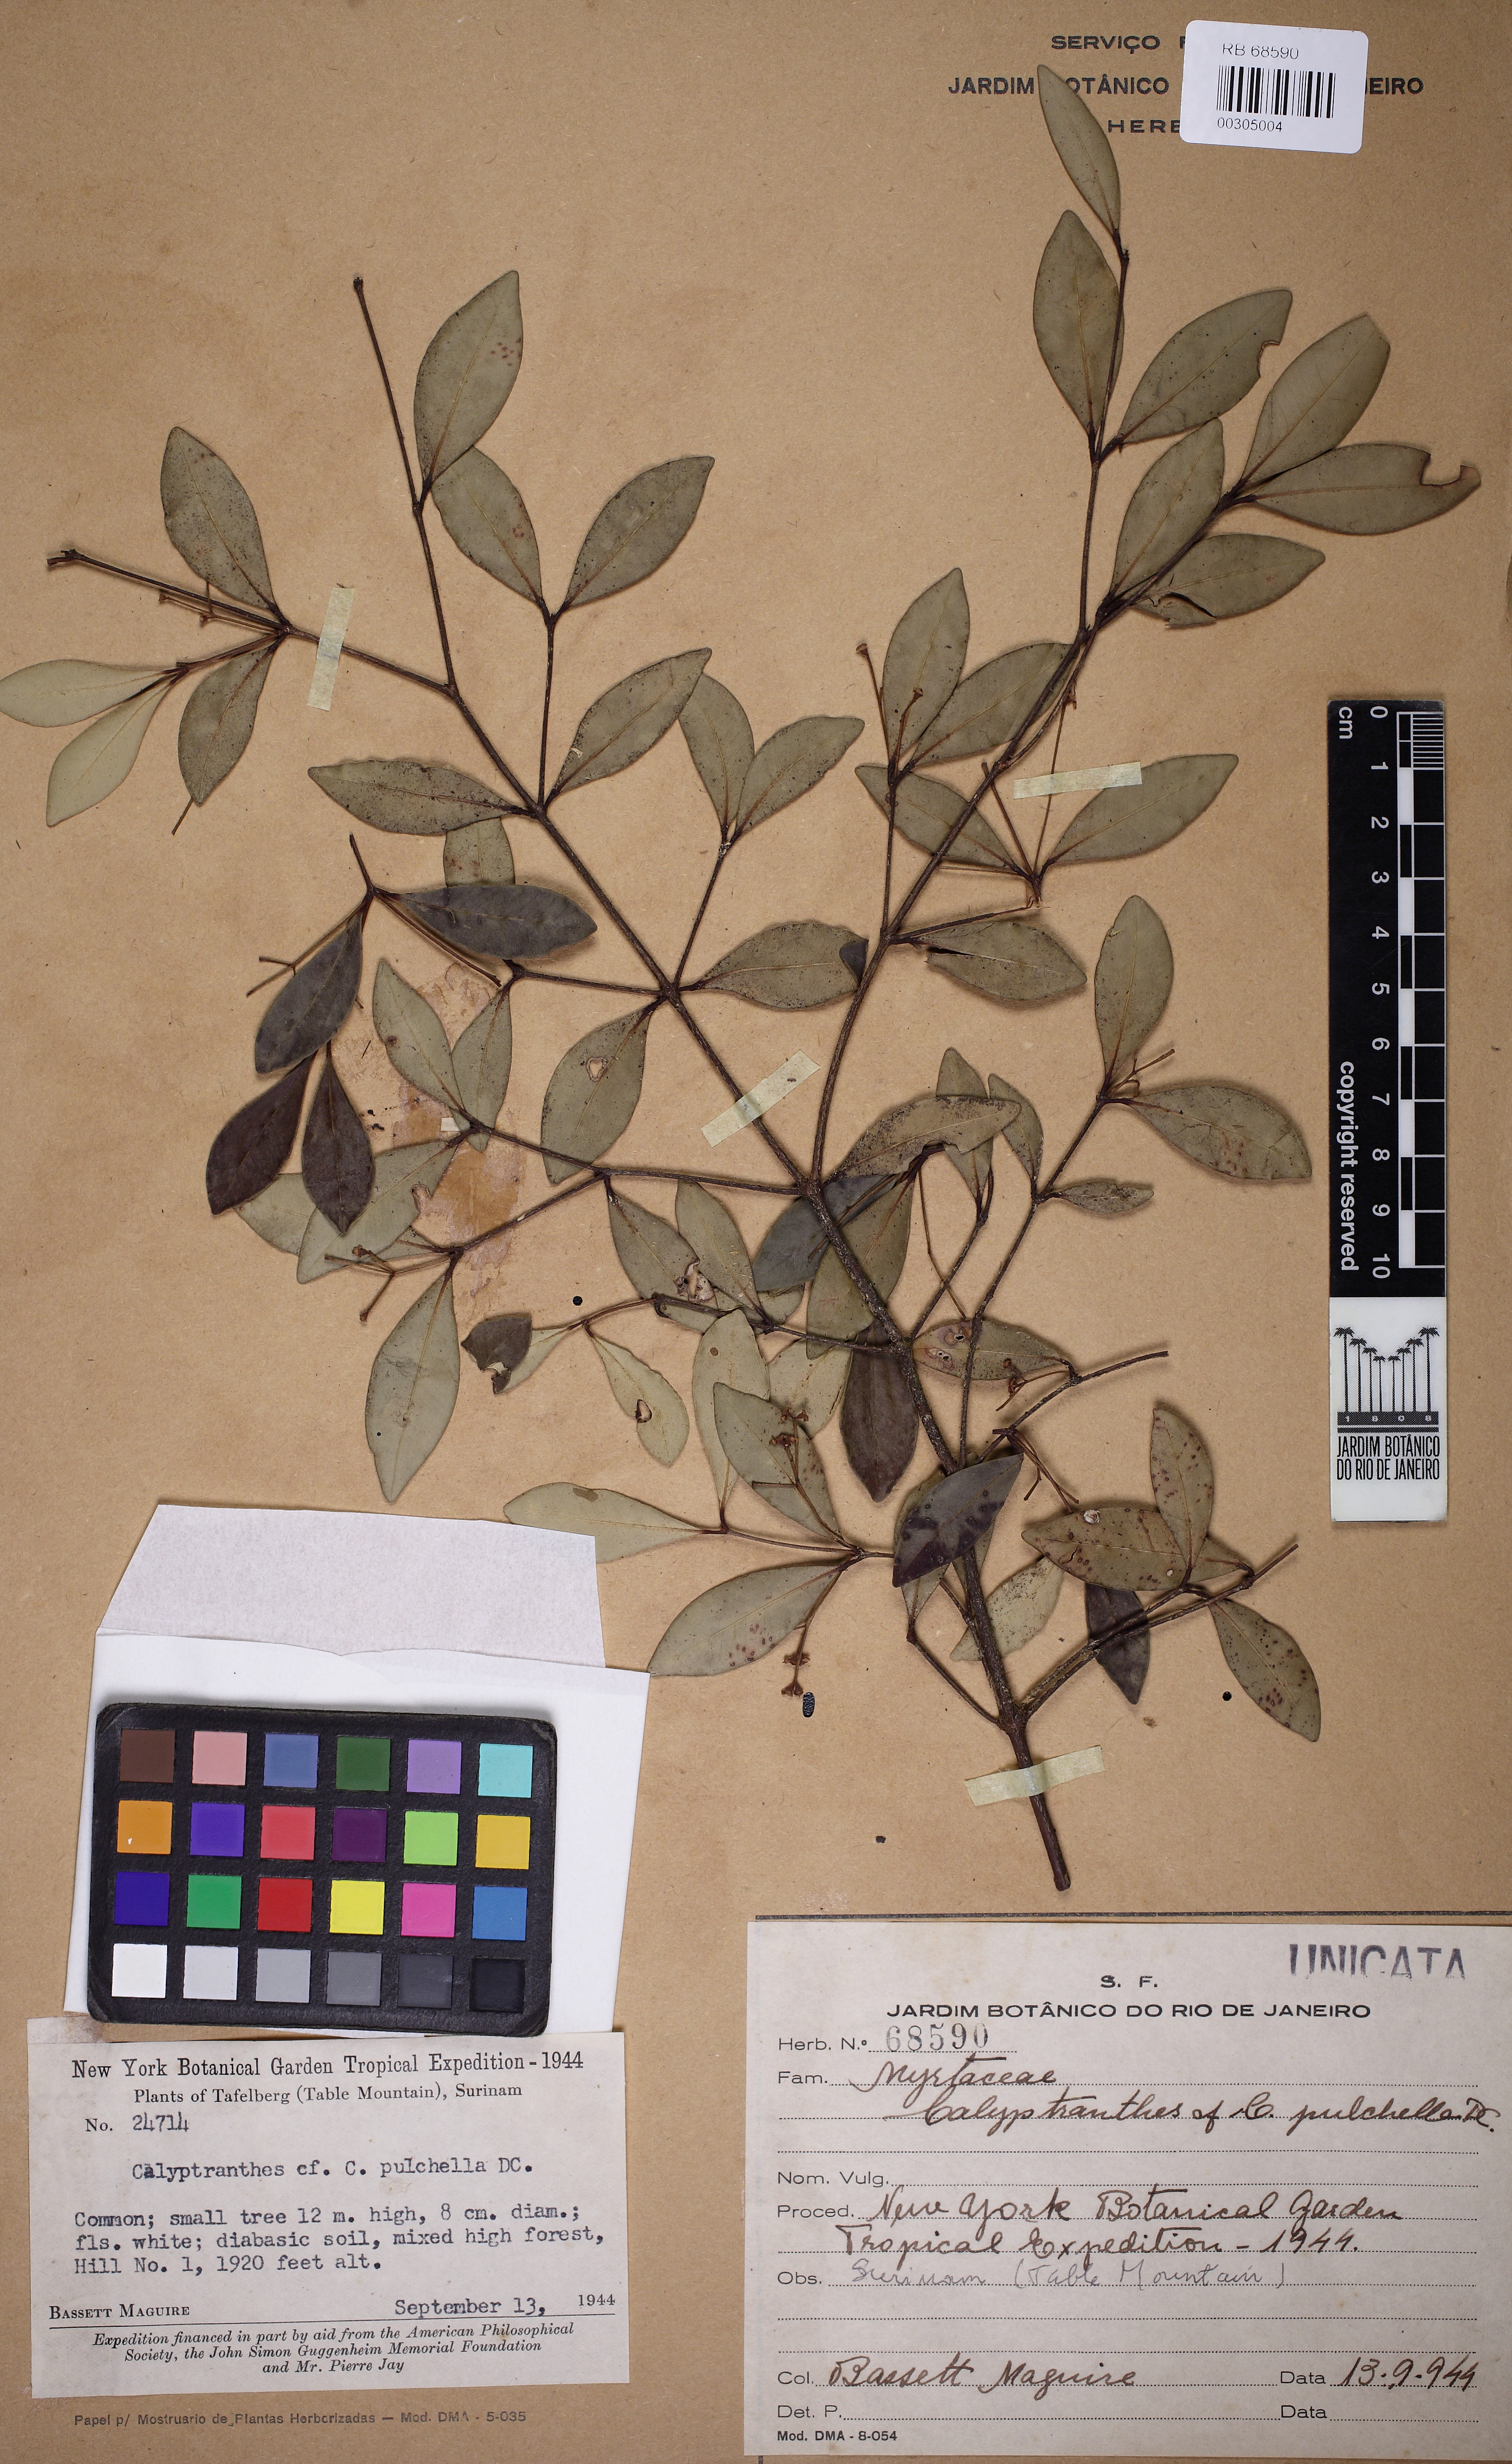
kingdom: Plantae
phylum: Tracheophyta
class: Magnoliopsida
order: Myrtales
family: Myrtaceae
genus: Myrcia
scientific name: Myrcia pulchella
